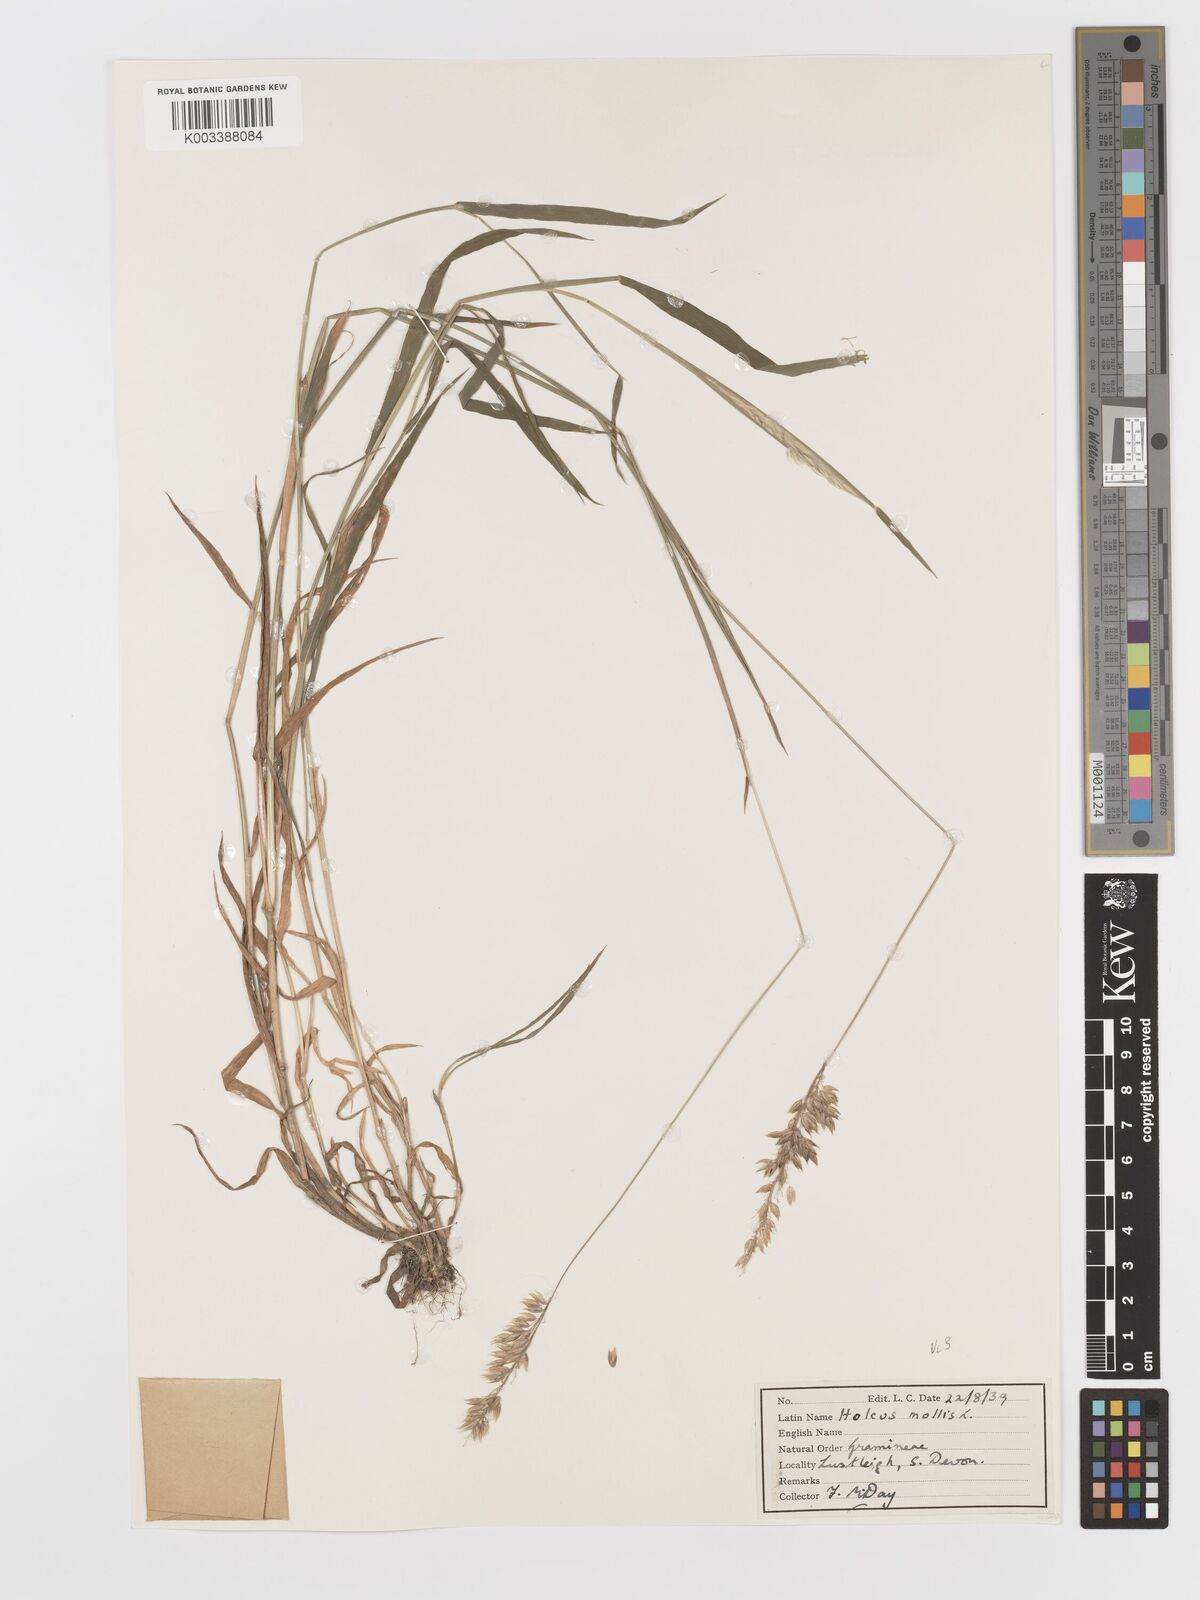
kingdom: Plantae
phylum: Tracheophyta
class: Liliopsida
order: Poales
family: Poaceae
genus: Holcus
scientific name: Holcus mollis
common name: Creeping velvetgrass
